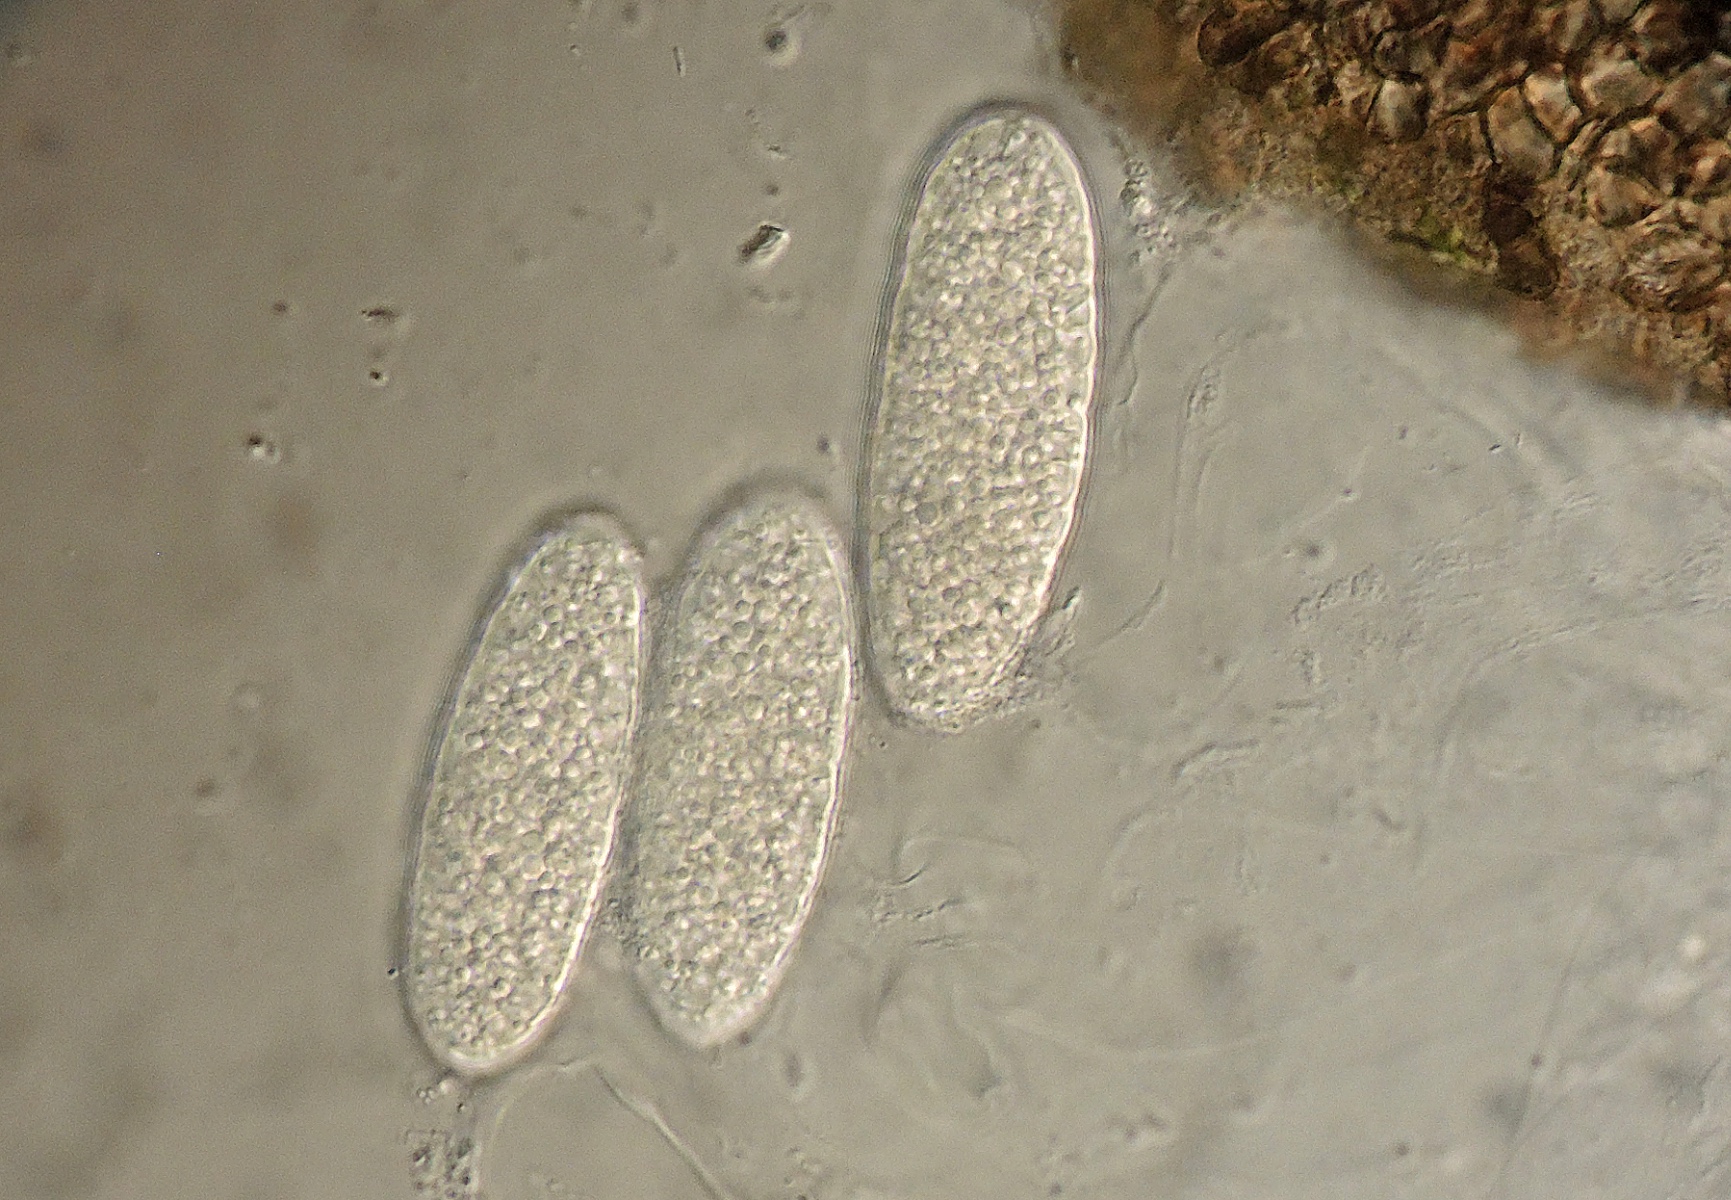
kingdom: Fungi
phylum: Ascomycota
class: Dothideomycetes
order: Dothideales
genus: Norrlinia
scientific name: Norrlinia peltigericola
